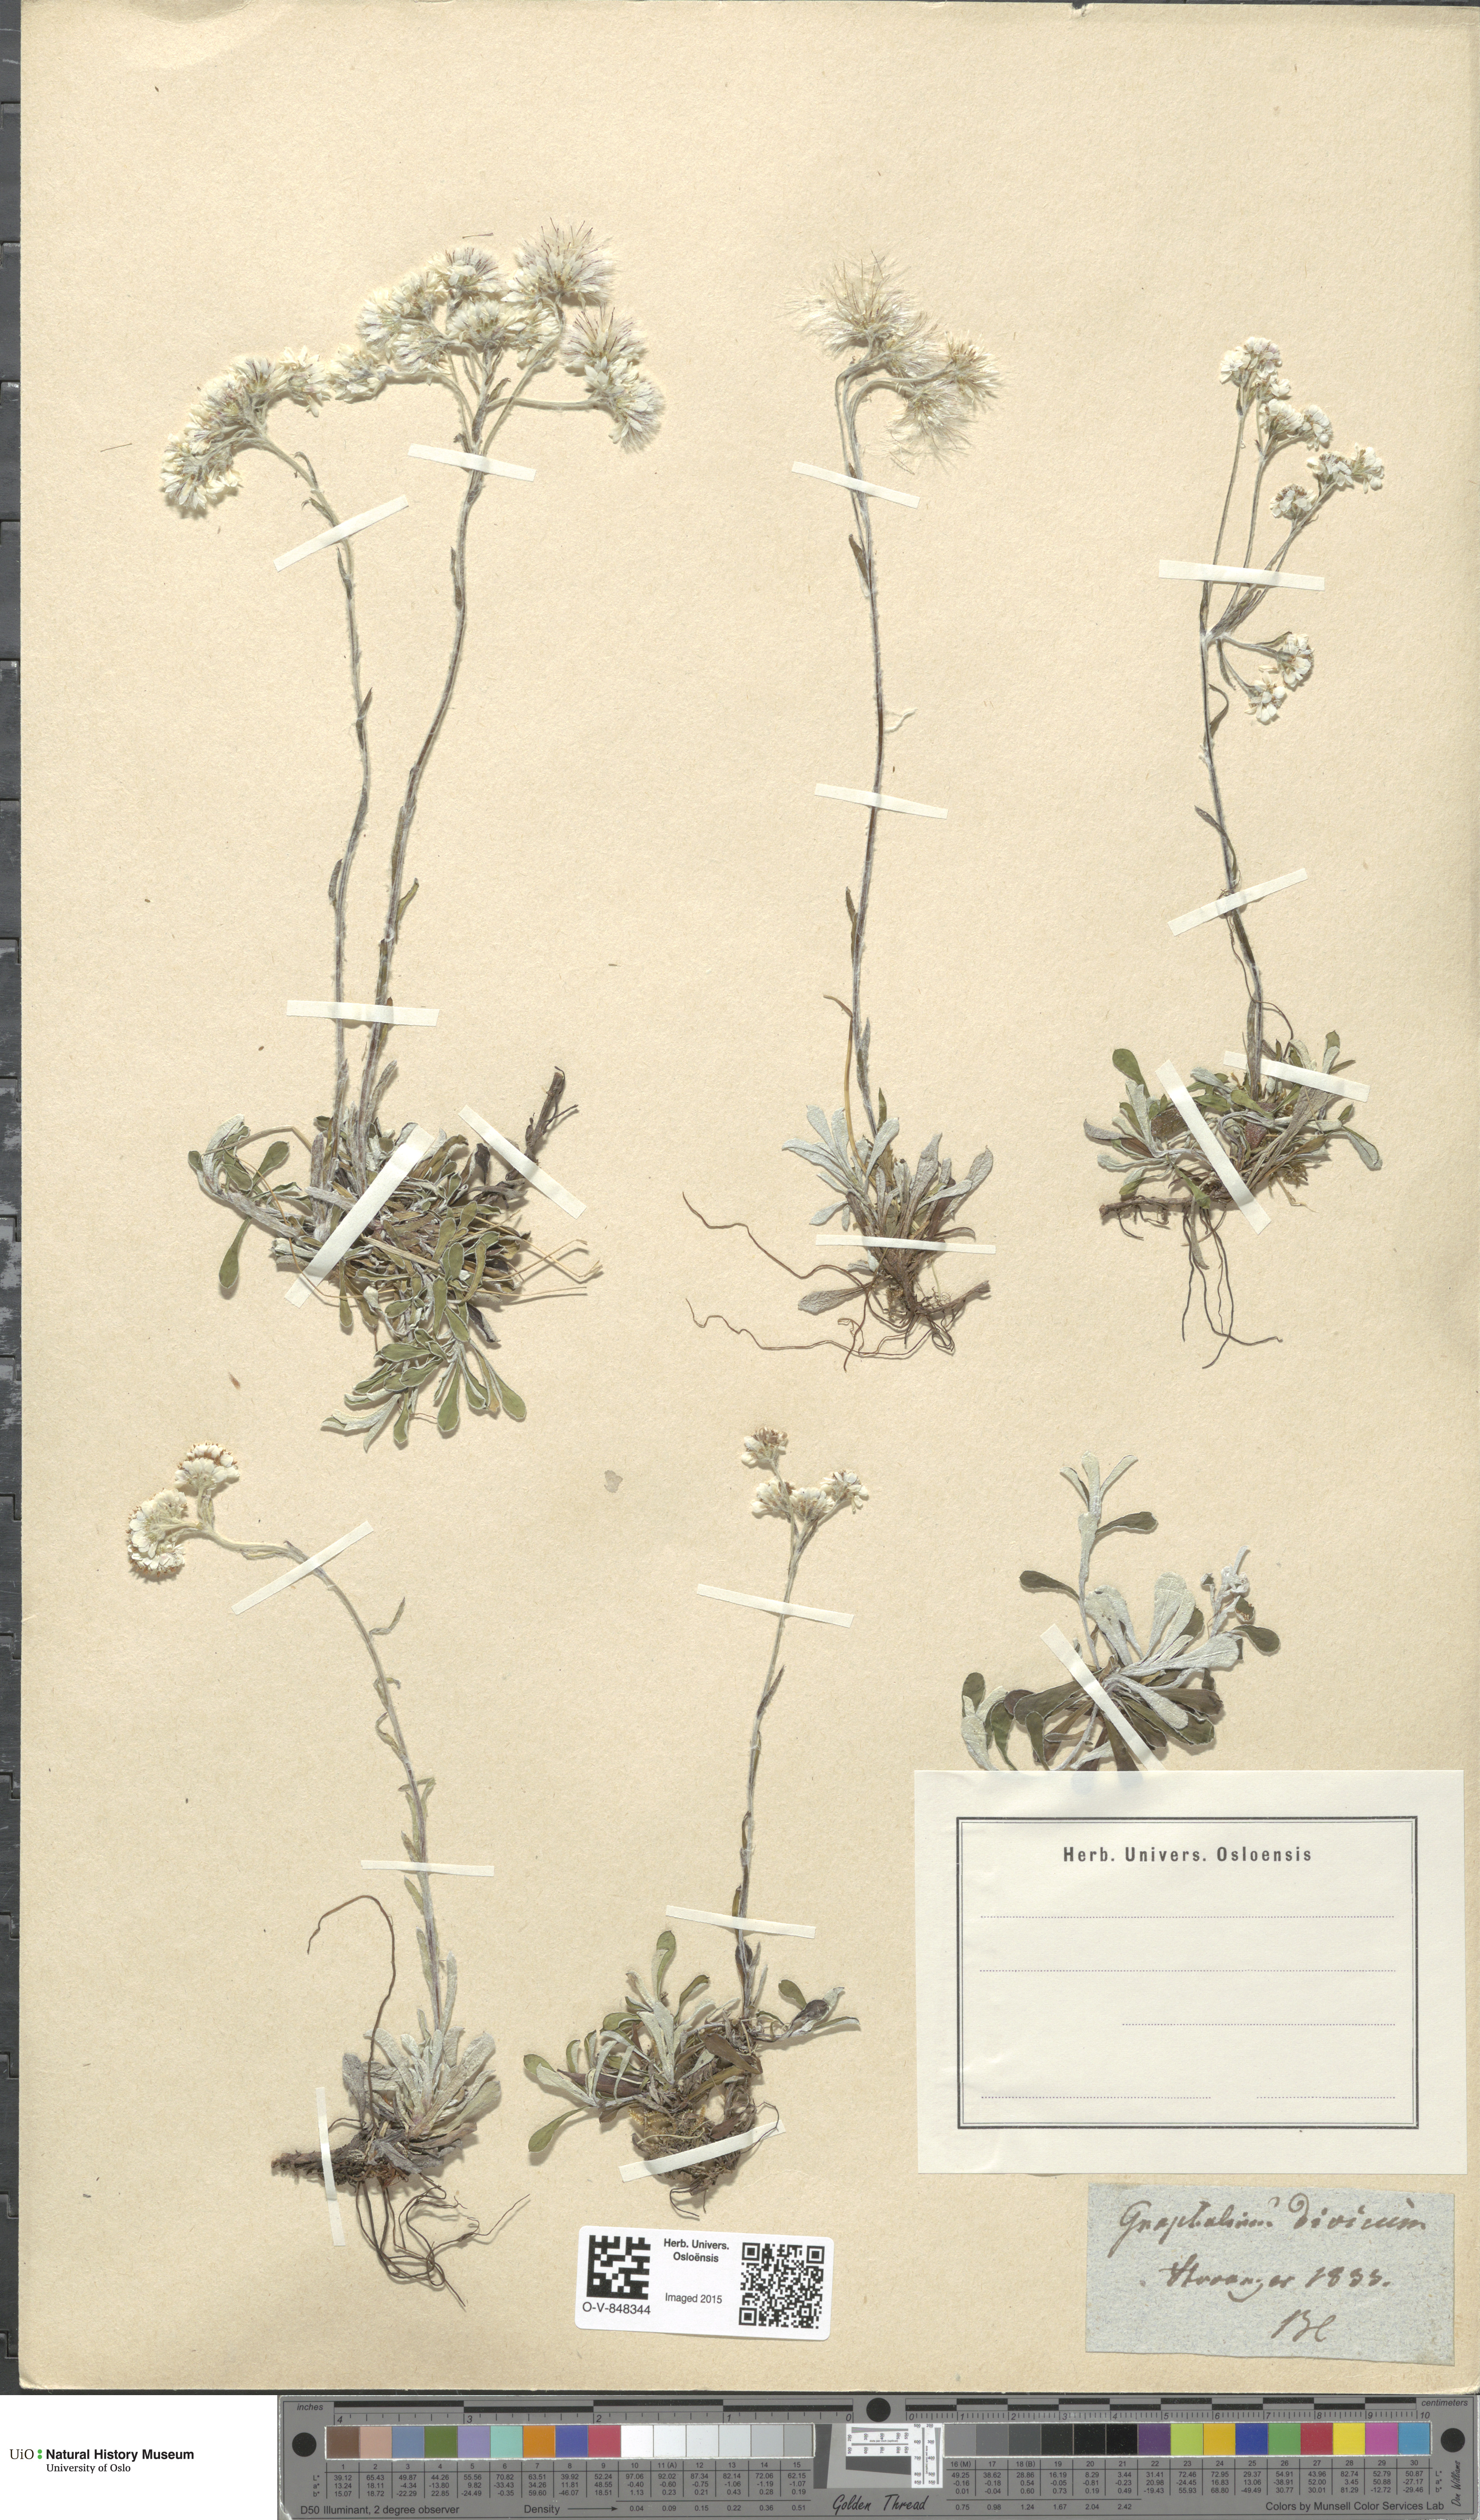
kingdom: Plantae
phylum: Tracheophyta
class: Magnoliopsida
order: Asterales
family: Asteraceae
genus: Antennaria
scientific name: Antennaria dioica
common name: Mountain everlasting
